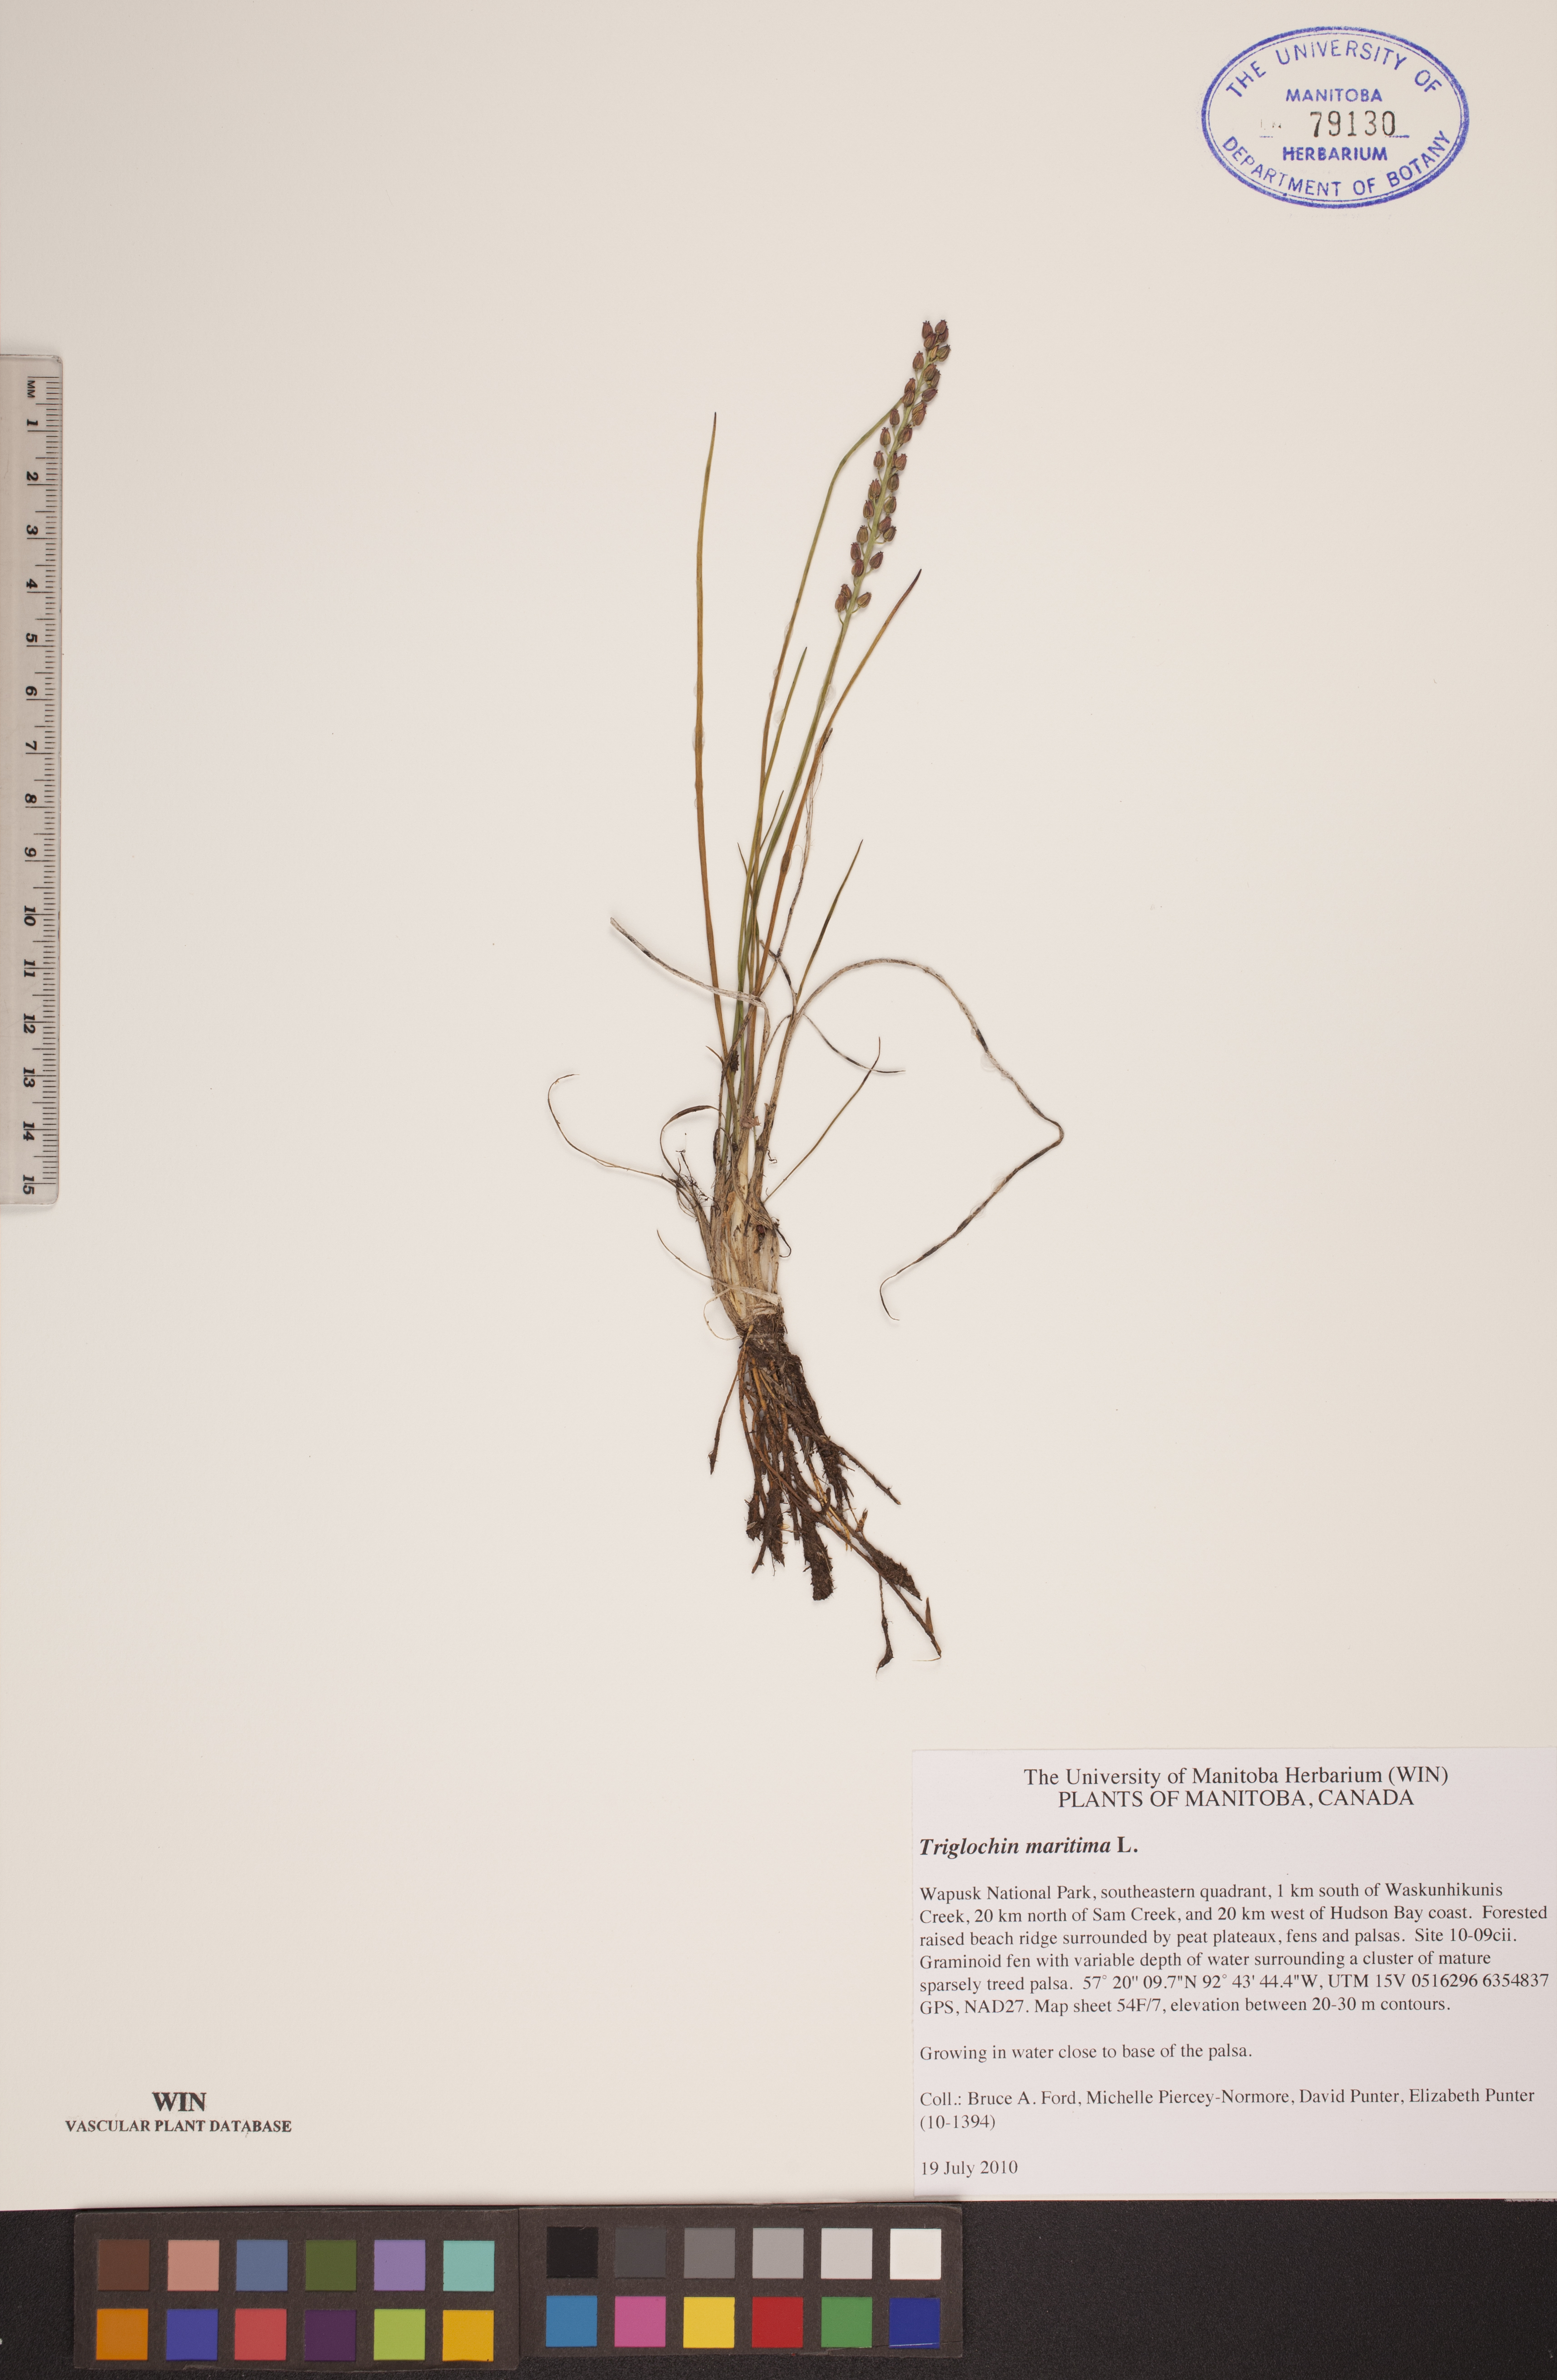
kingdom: Plantae
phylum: Tracheophyta
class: Liliopsida
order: Alismatales
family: Juncaginaceae
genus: Triglochin
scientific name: Triglochin maritima
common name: Sea arrowgrass
